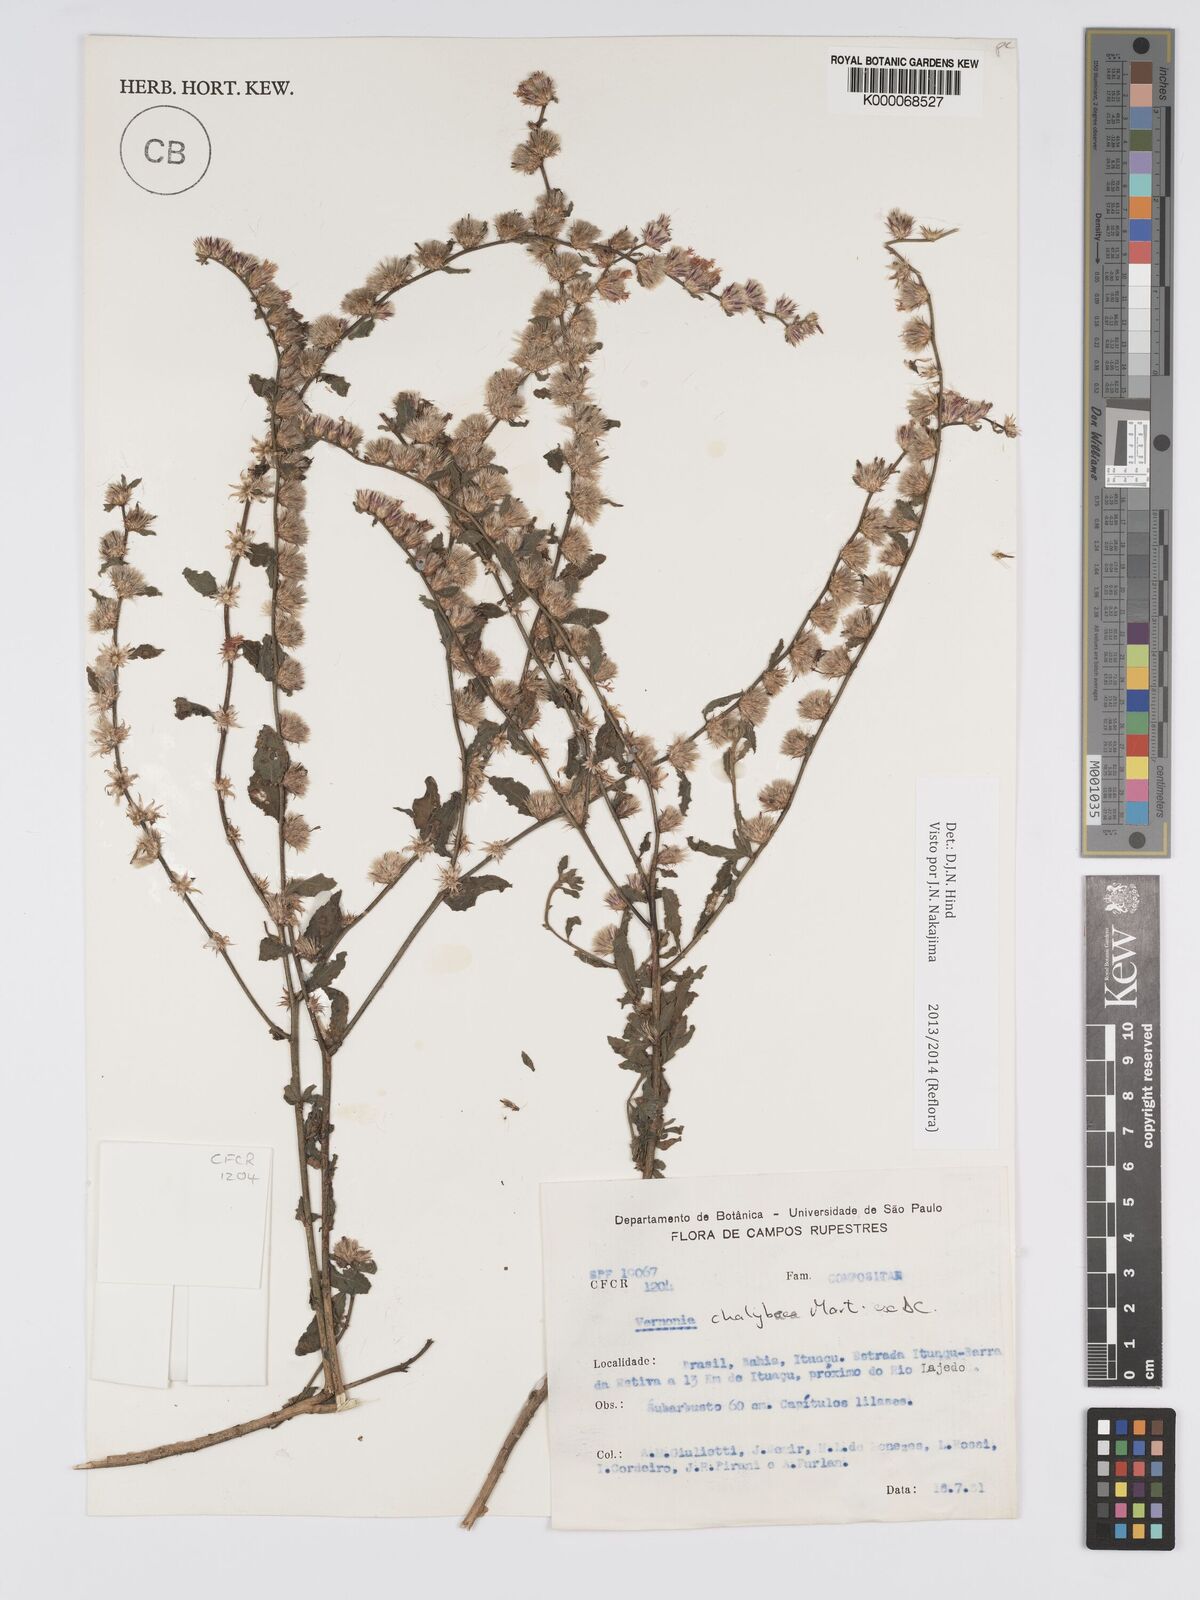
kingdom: Plantae
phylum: Tracheophyta
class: Magnoliopsida
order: Asterales
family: Asteraceae
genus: Lepidaploa
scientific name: Lepidaploa chalybaea
